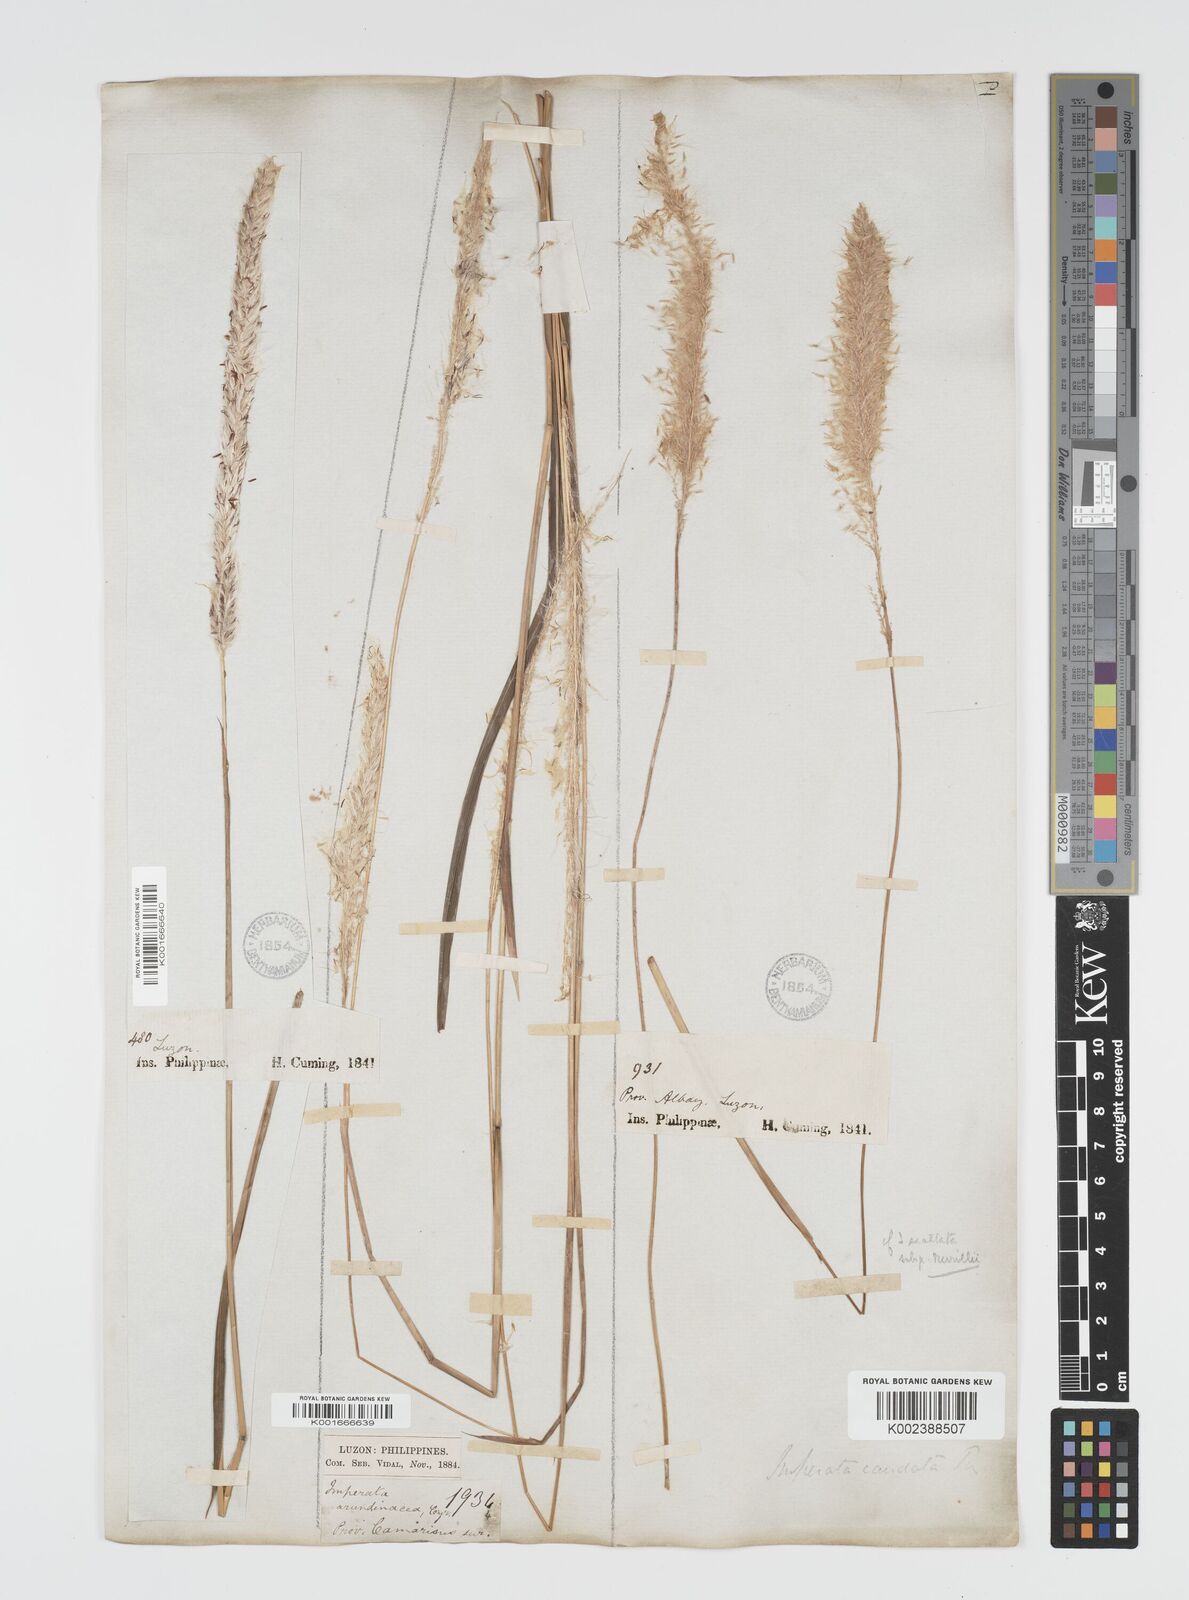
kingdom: Plantae
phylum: Tracheophyta
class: Liliopsida
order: Poales
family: Poaceae
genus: Imperata
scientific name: Imperata cylindrica
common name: Cogongrass
